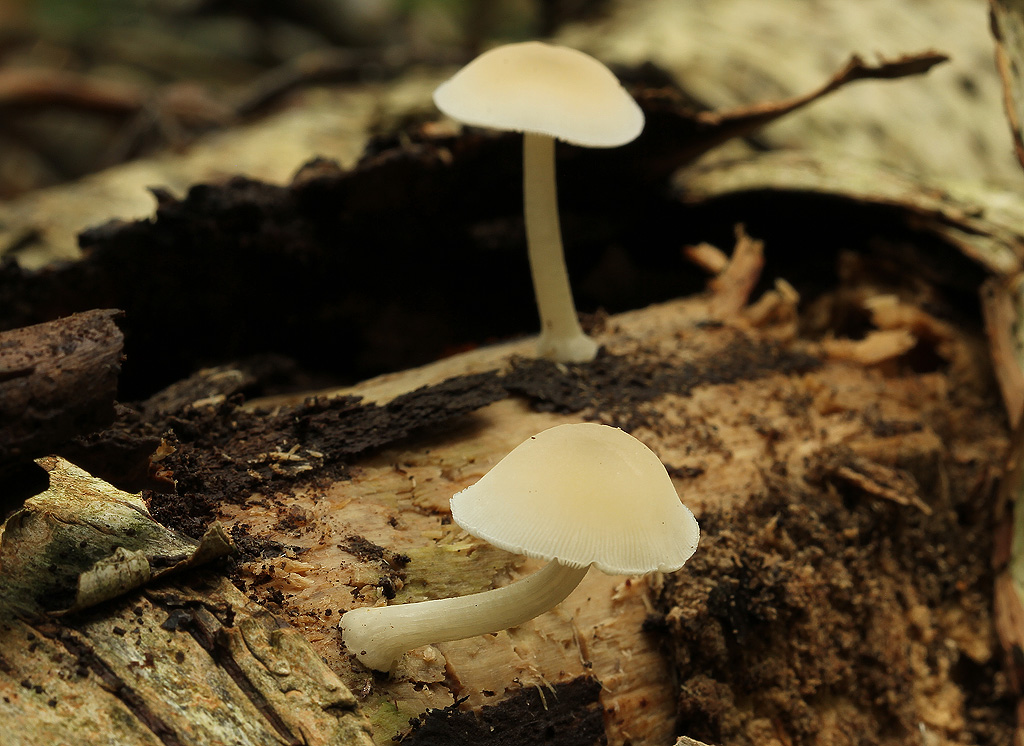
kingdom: Fungi
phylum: Basidiomycota
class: Agaricomycetes
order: Agaricales
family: Pluteaceae
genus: Pluteus
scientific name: Pluteus semibulbosus
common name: knoldet skærmhat
